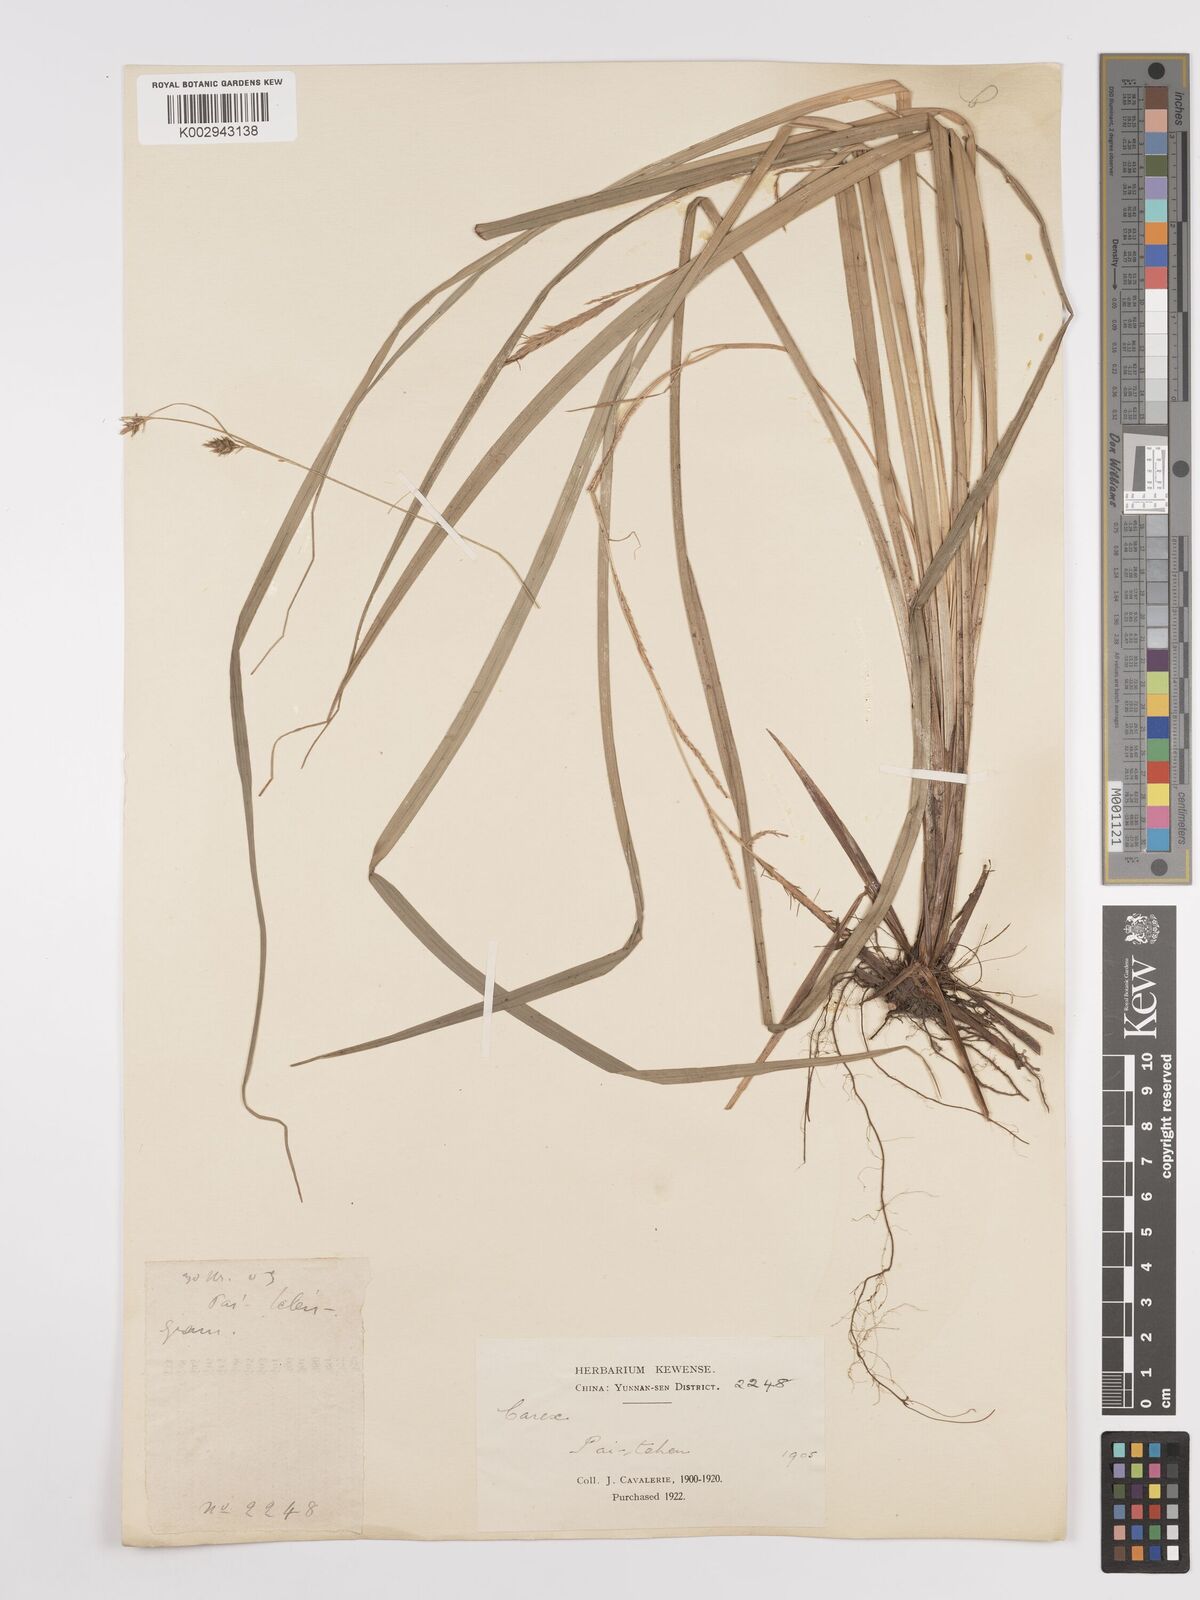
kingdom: Plantae
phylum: Tracheophyta
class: Liliopsida
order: Poales
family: Cyperaceae
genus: Carex
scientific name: Carex
